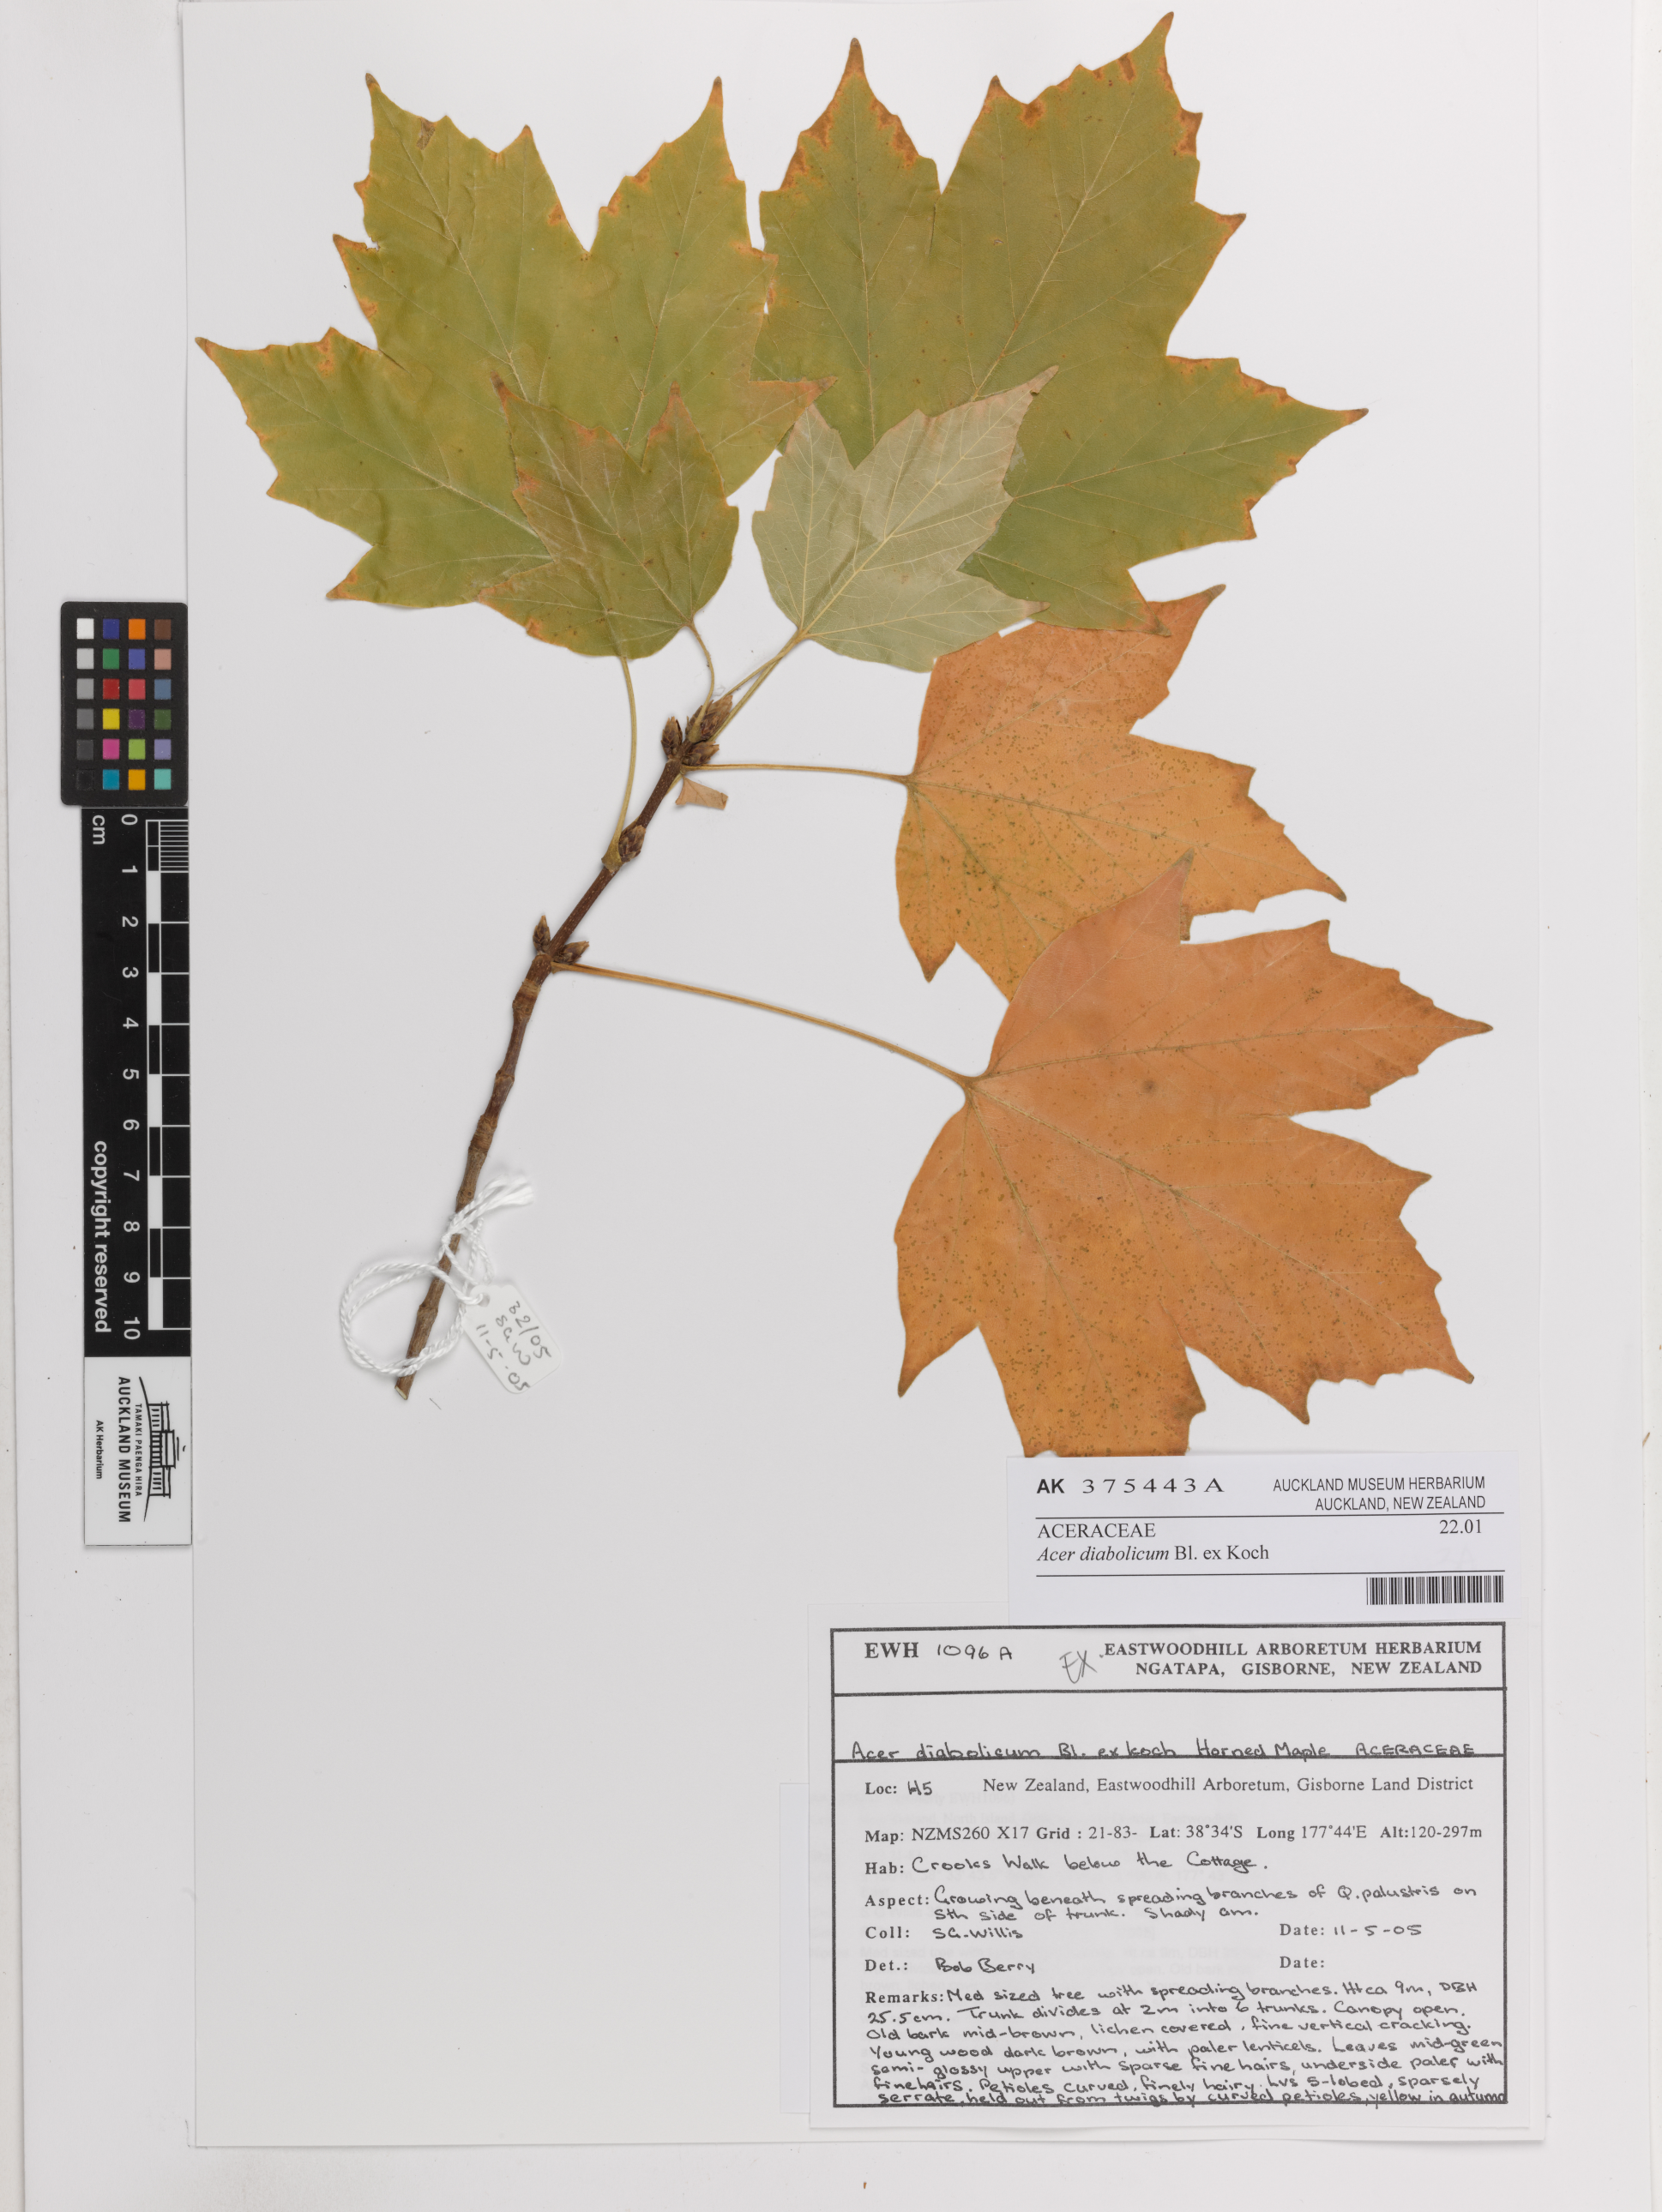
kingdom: Plantae
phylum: Tracheophyta
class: Magnoliopsida
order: Sapindales
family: Sapindaceae
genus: Acer
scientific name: Acer diabolicum
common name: Devil maple
